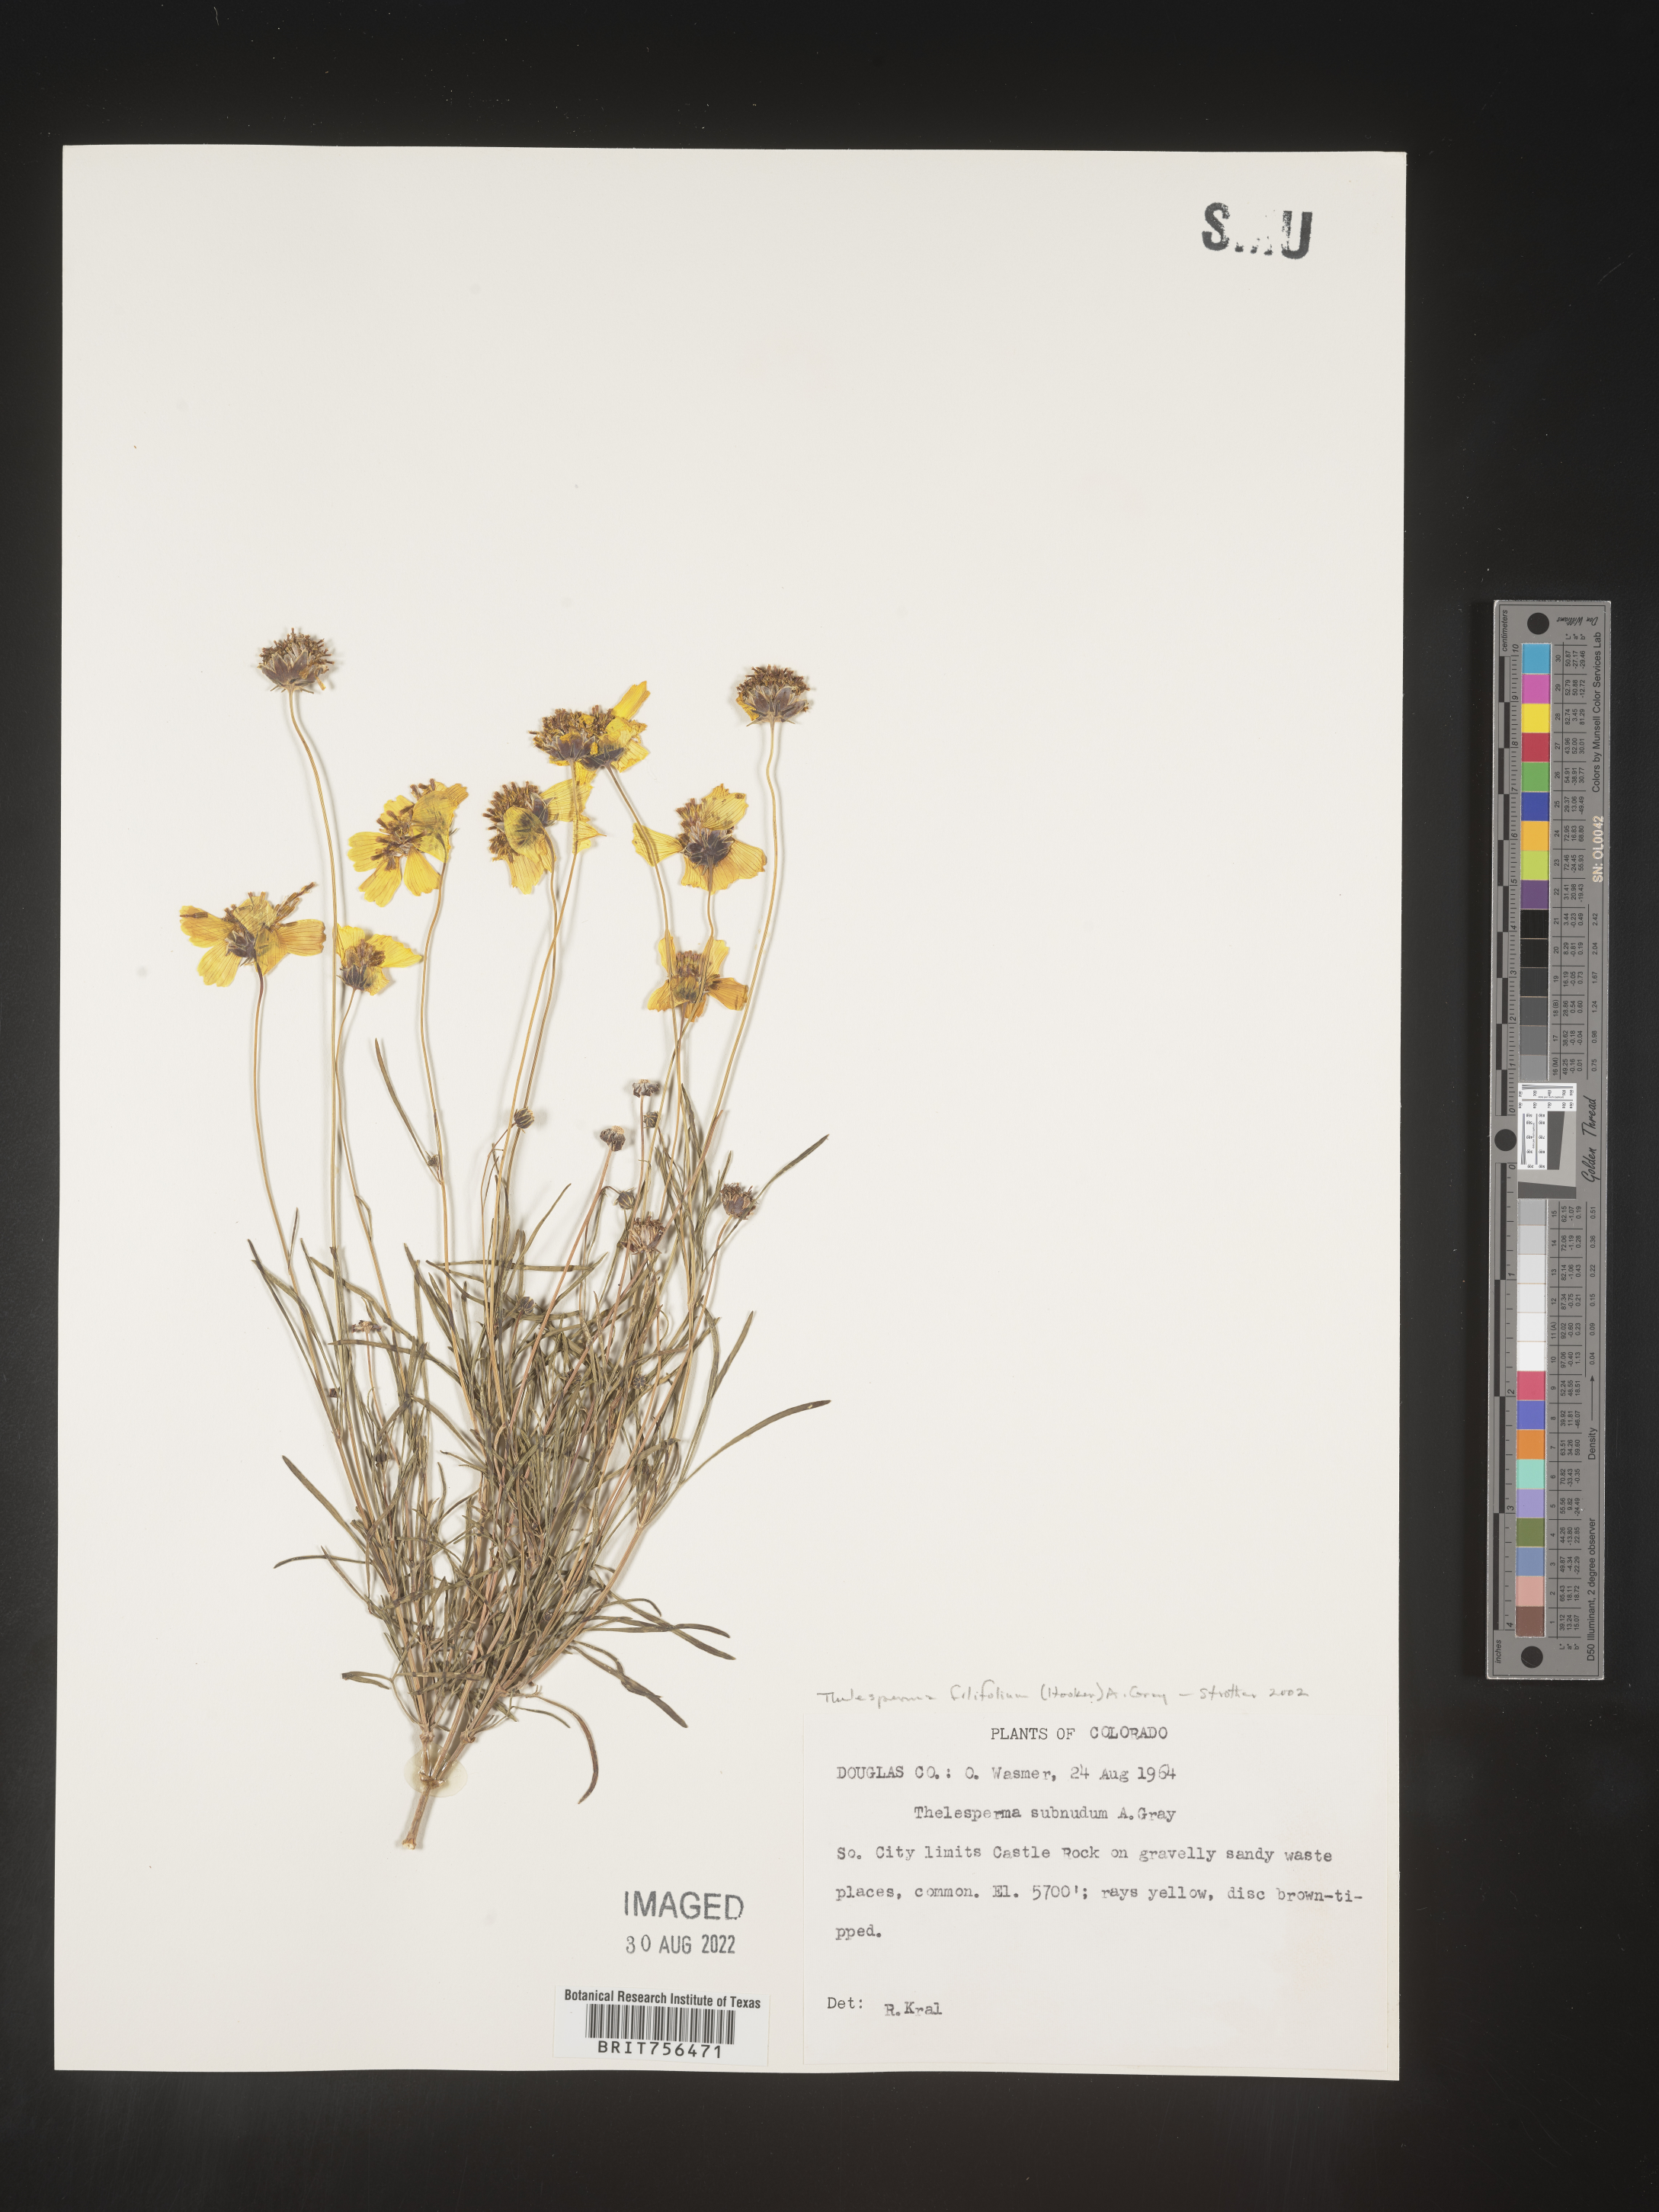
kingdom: Plantae
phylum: Tracheophyta
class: Magnoliopsida
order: Asterales
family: Asteraceae
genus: Thelesperma
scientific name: Thelesperma filifolium
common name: Stiff greenthread
